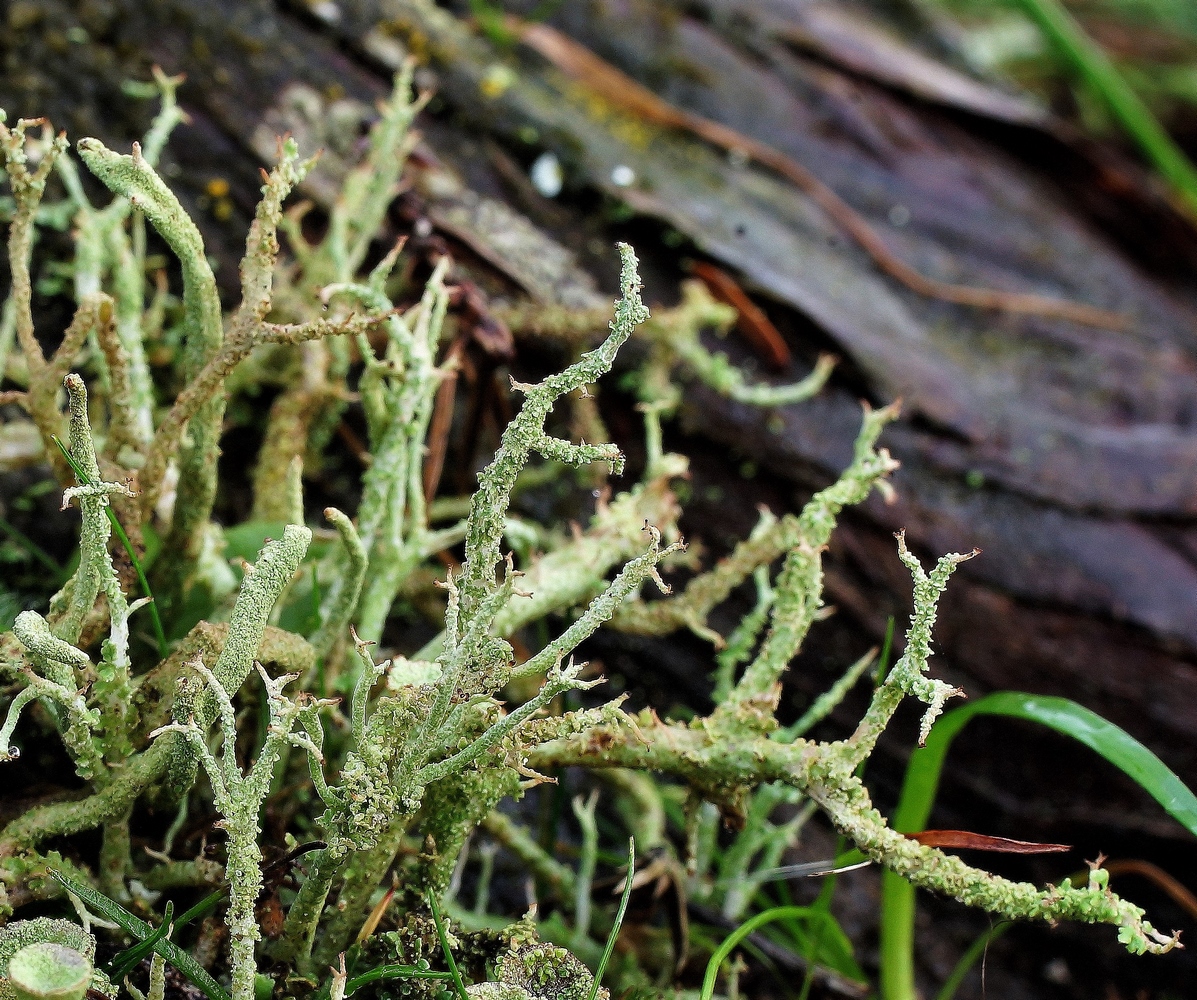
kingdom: Fungi
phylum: Ascomycota
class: Lecanoromycetes
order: Lecanorales
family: Cladoniaceae
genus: Cladonia
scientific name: Cladonia scabriuscula
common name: ru bægerlav
